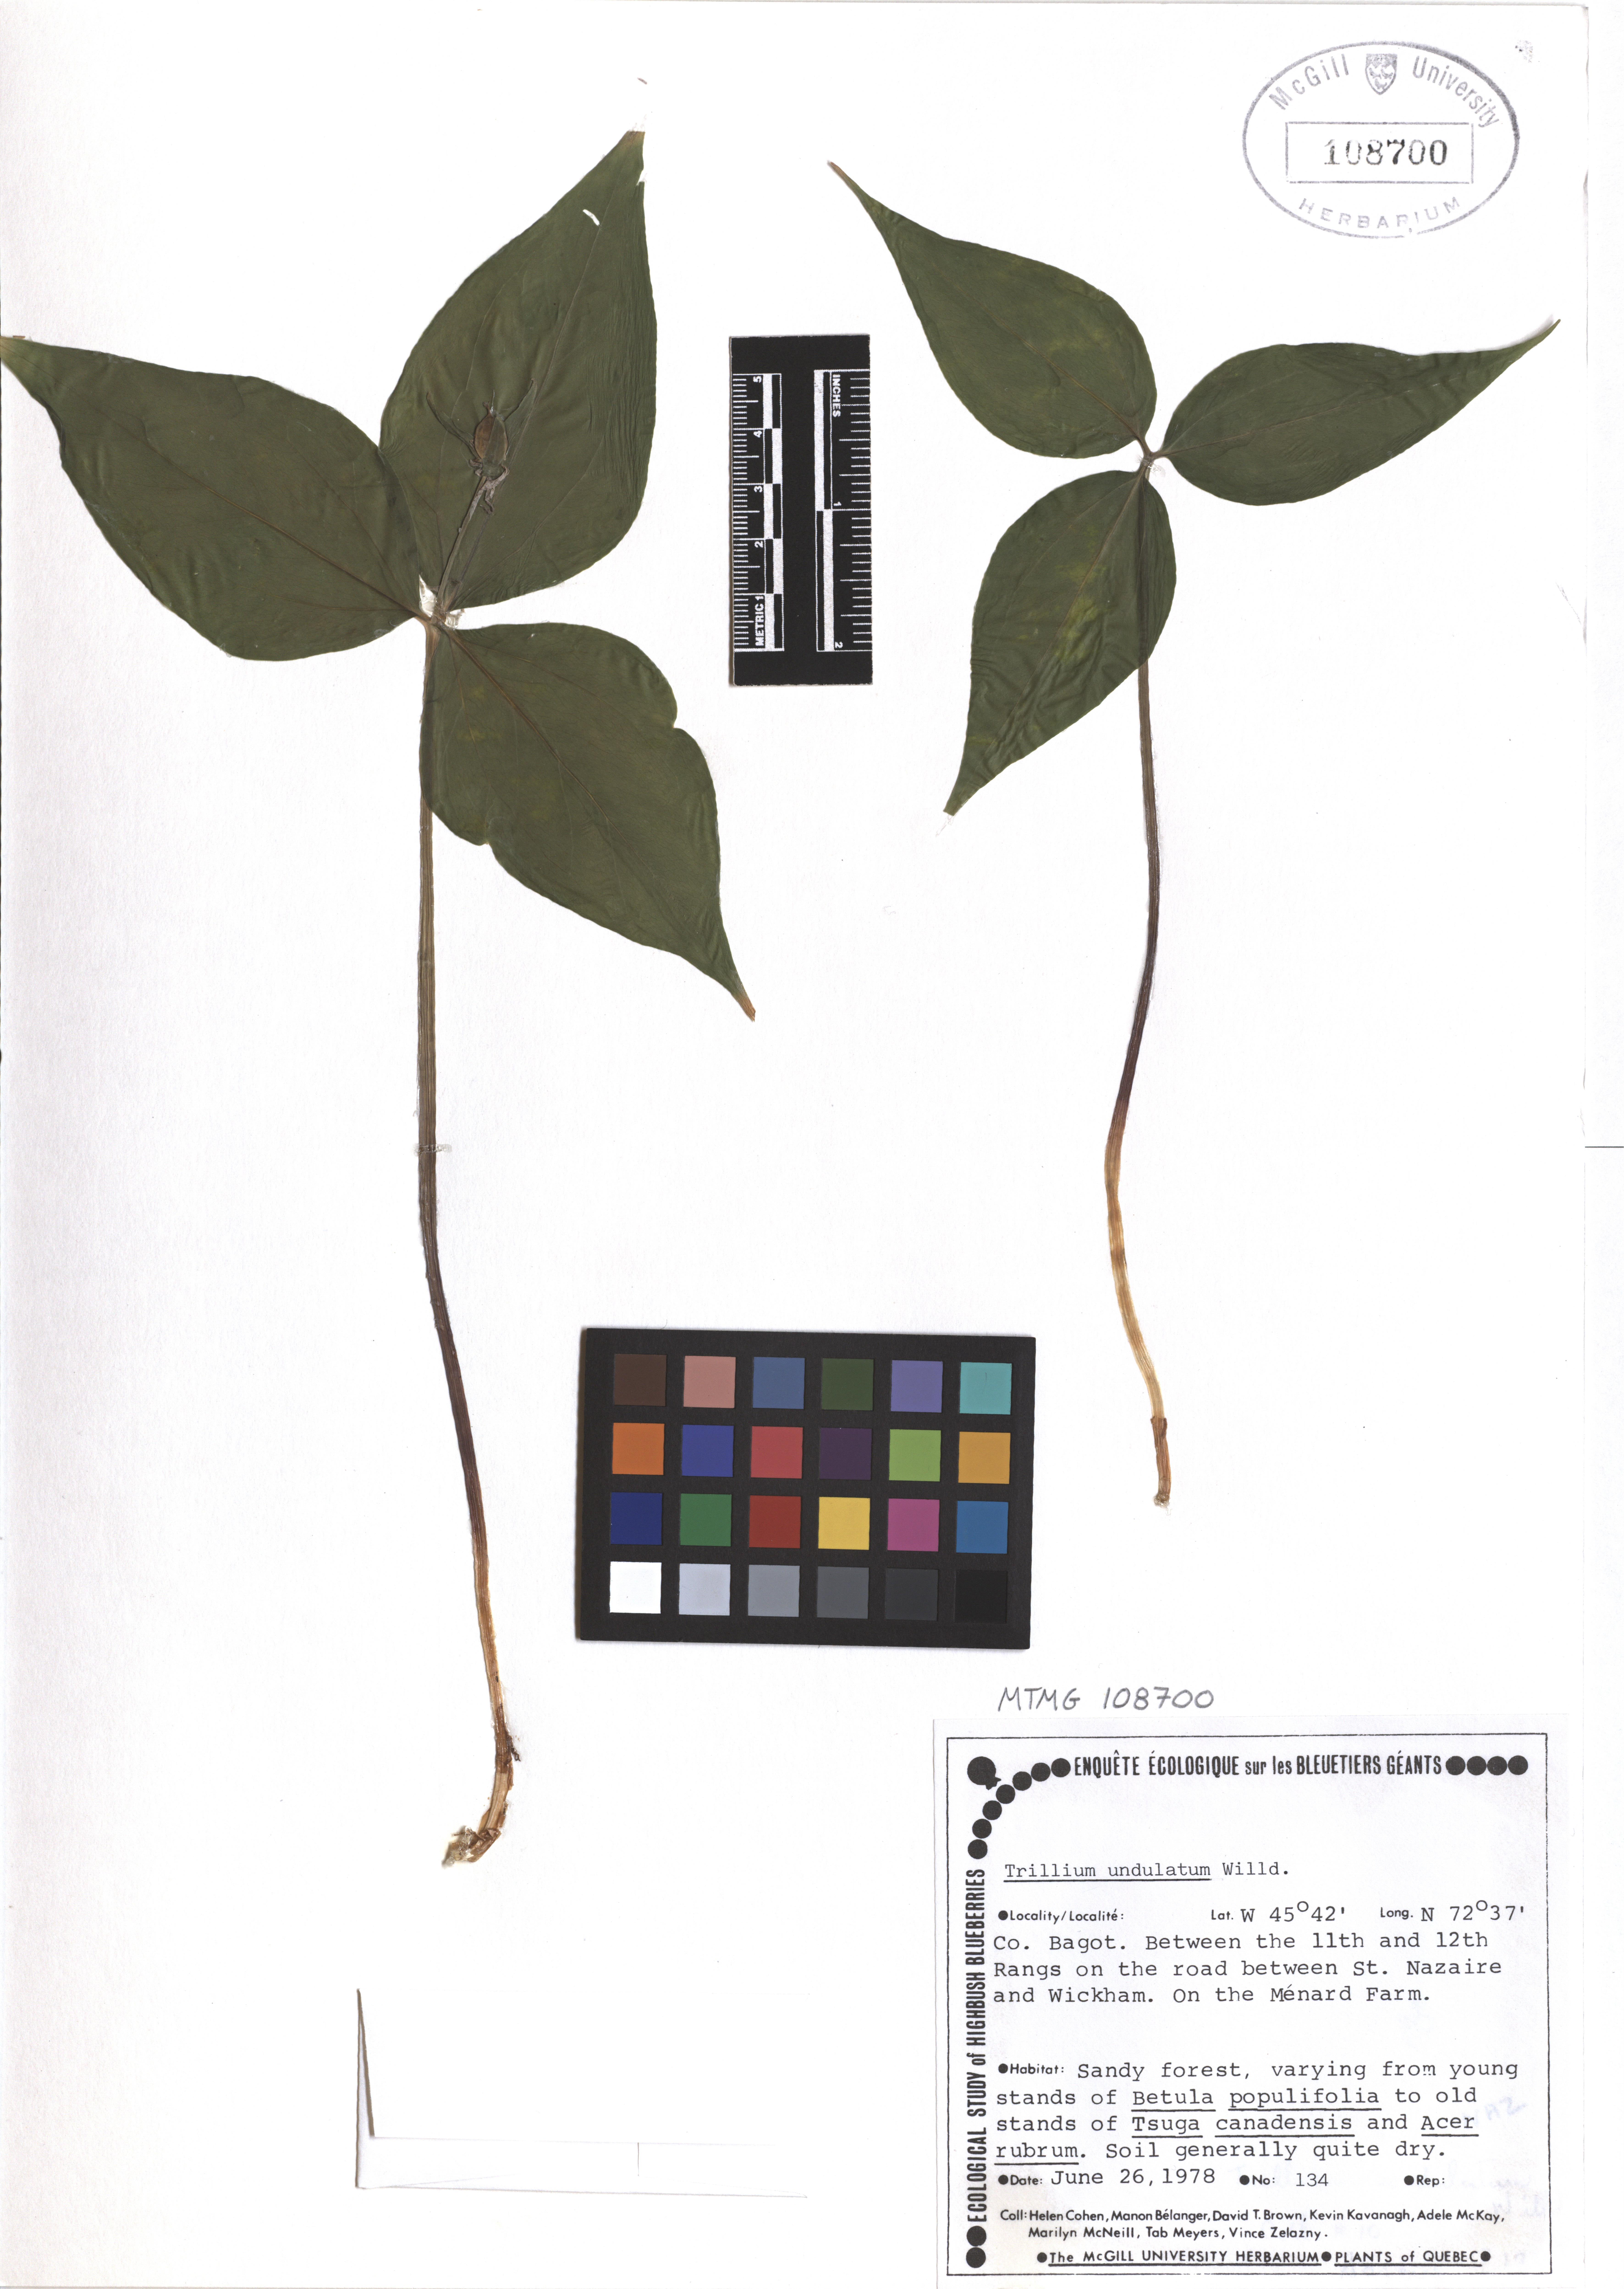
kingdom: Plantae
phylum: Tracheophyta
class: Liliopsida
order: Liliales
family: Melanthiaceae
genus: Trillium
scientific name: Trillium undulatum
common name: Paint trillium
